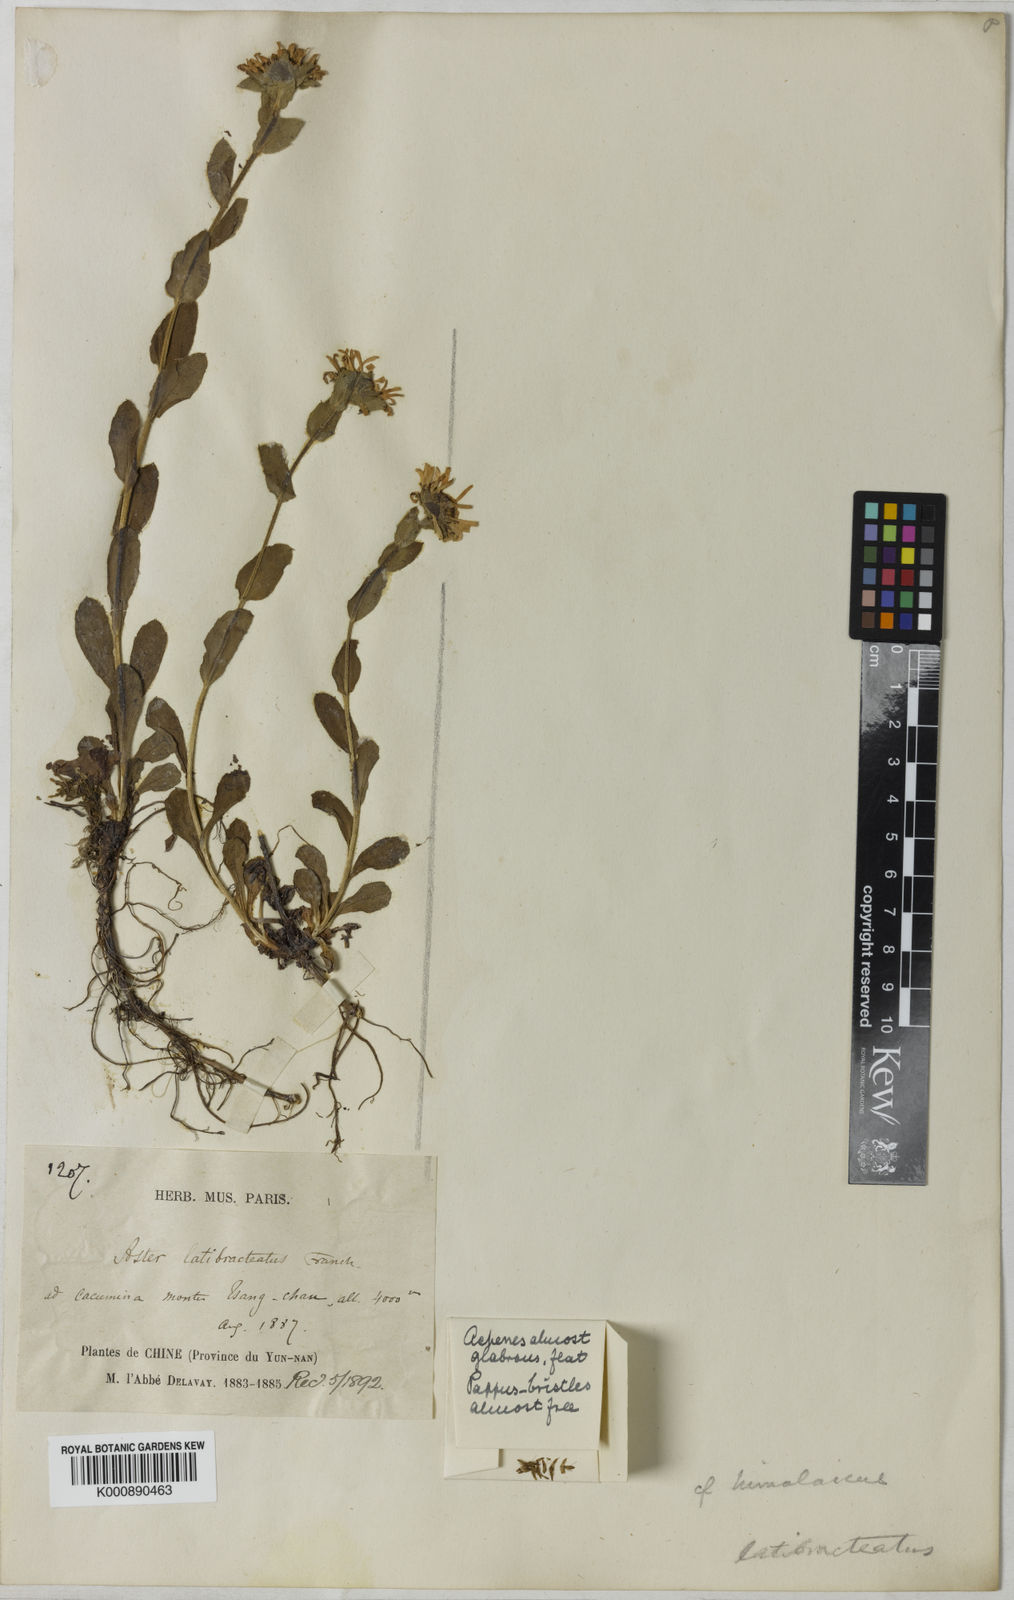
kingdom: Plantae
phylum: Tracheophyta
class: Magnoliopsida
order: Asterales
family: Asteraceae
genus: Tibetiodes
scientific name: Tibetiodes latibracteata
